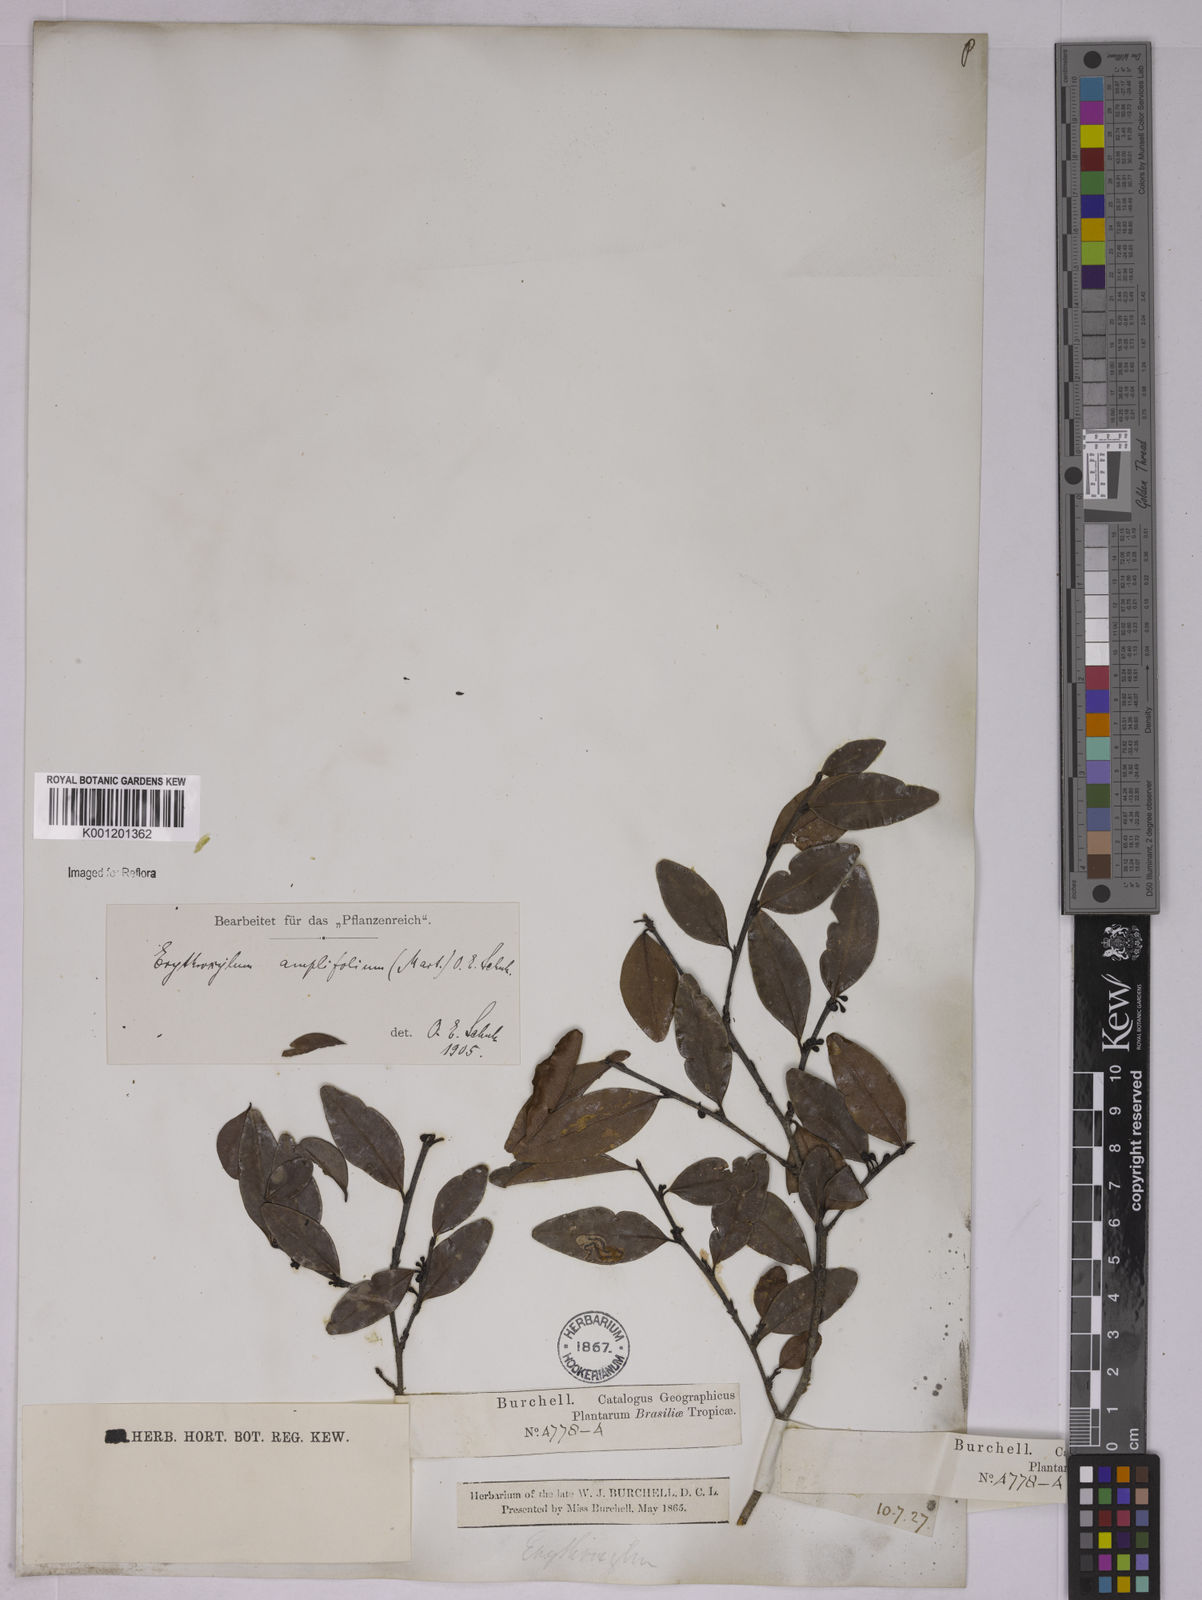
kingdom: Plantae
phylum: Tracheophyta
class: Magnoliopsida
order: Malpighiales
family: Erythroxylaceae
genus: Erythroxylum
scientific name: Erythroxylum
